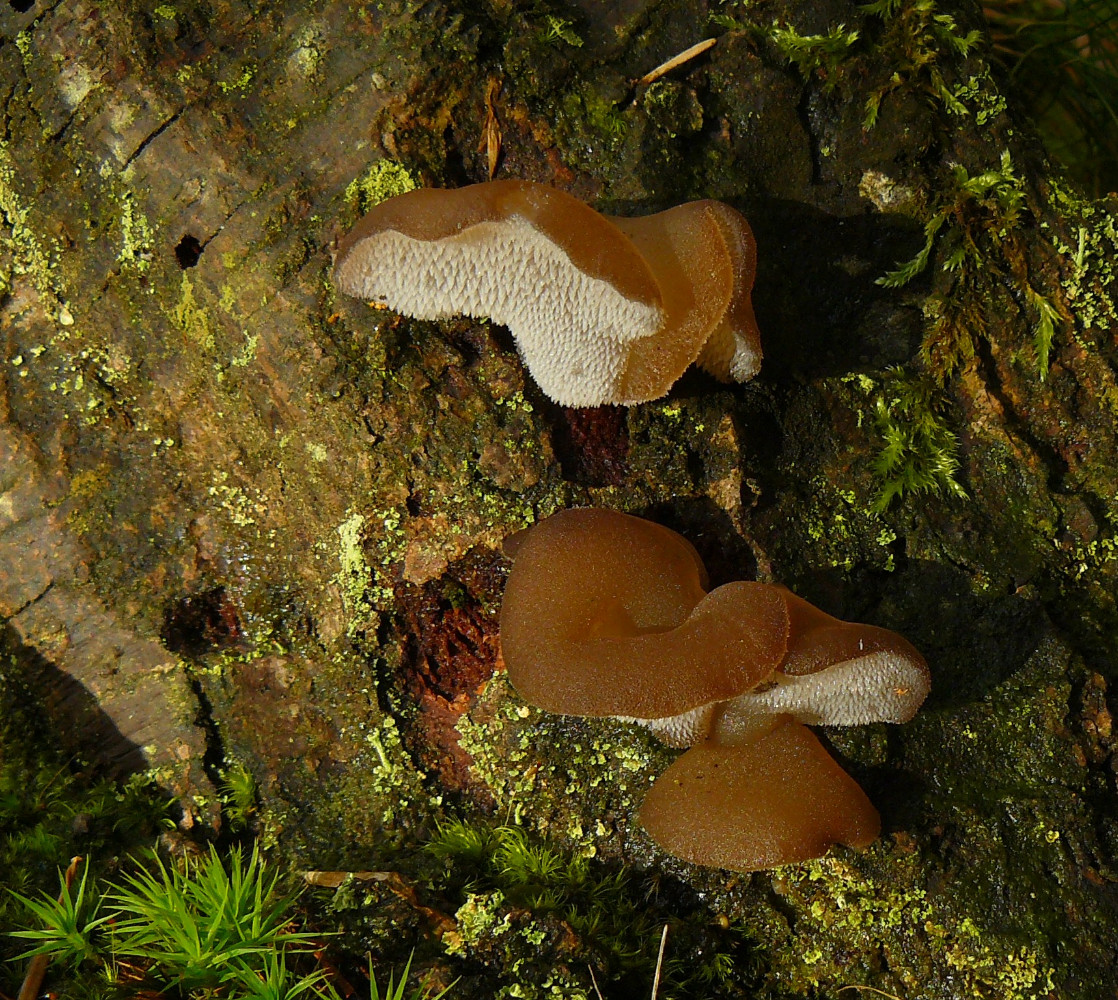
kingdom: Fungi
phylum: Basidiomycota
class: Agaricomycetes
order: Auriculariales
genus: Pseudohydnum
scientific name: Pseudohydnum gelatinosum
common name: bævretand
